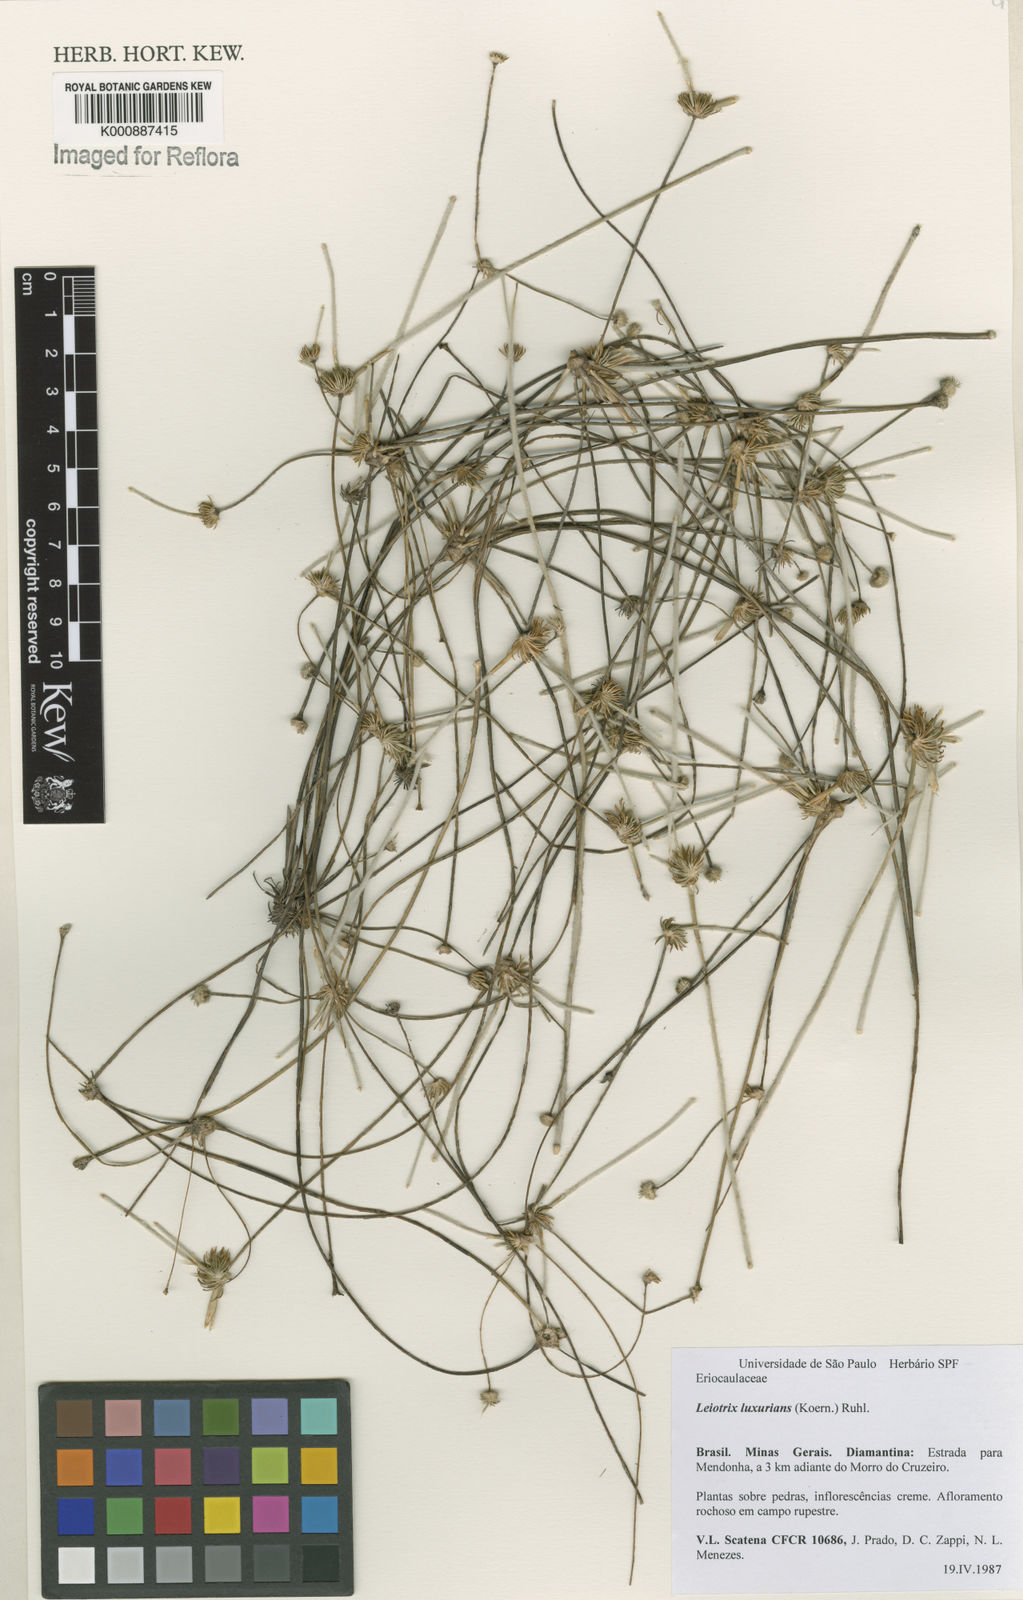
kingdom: Plantae
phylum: Tracheophyta
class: Liliopsida
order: Poales
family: Eriocaulaceae
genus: Leiothrix
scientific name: Leiothrix luxurians
